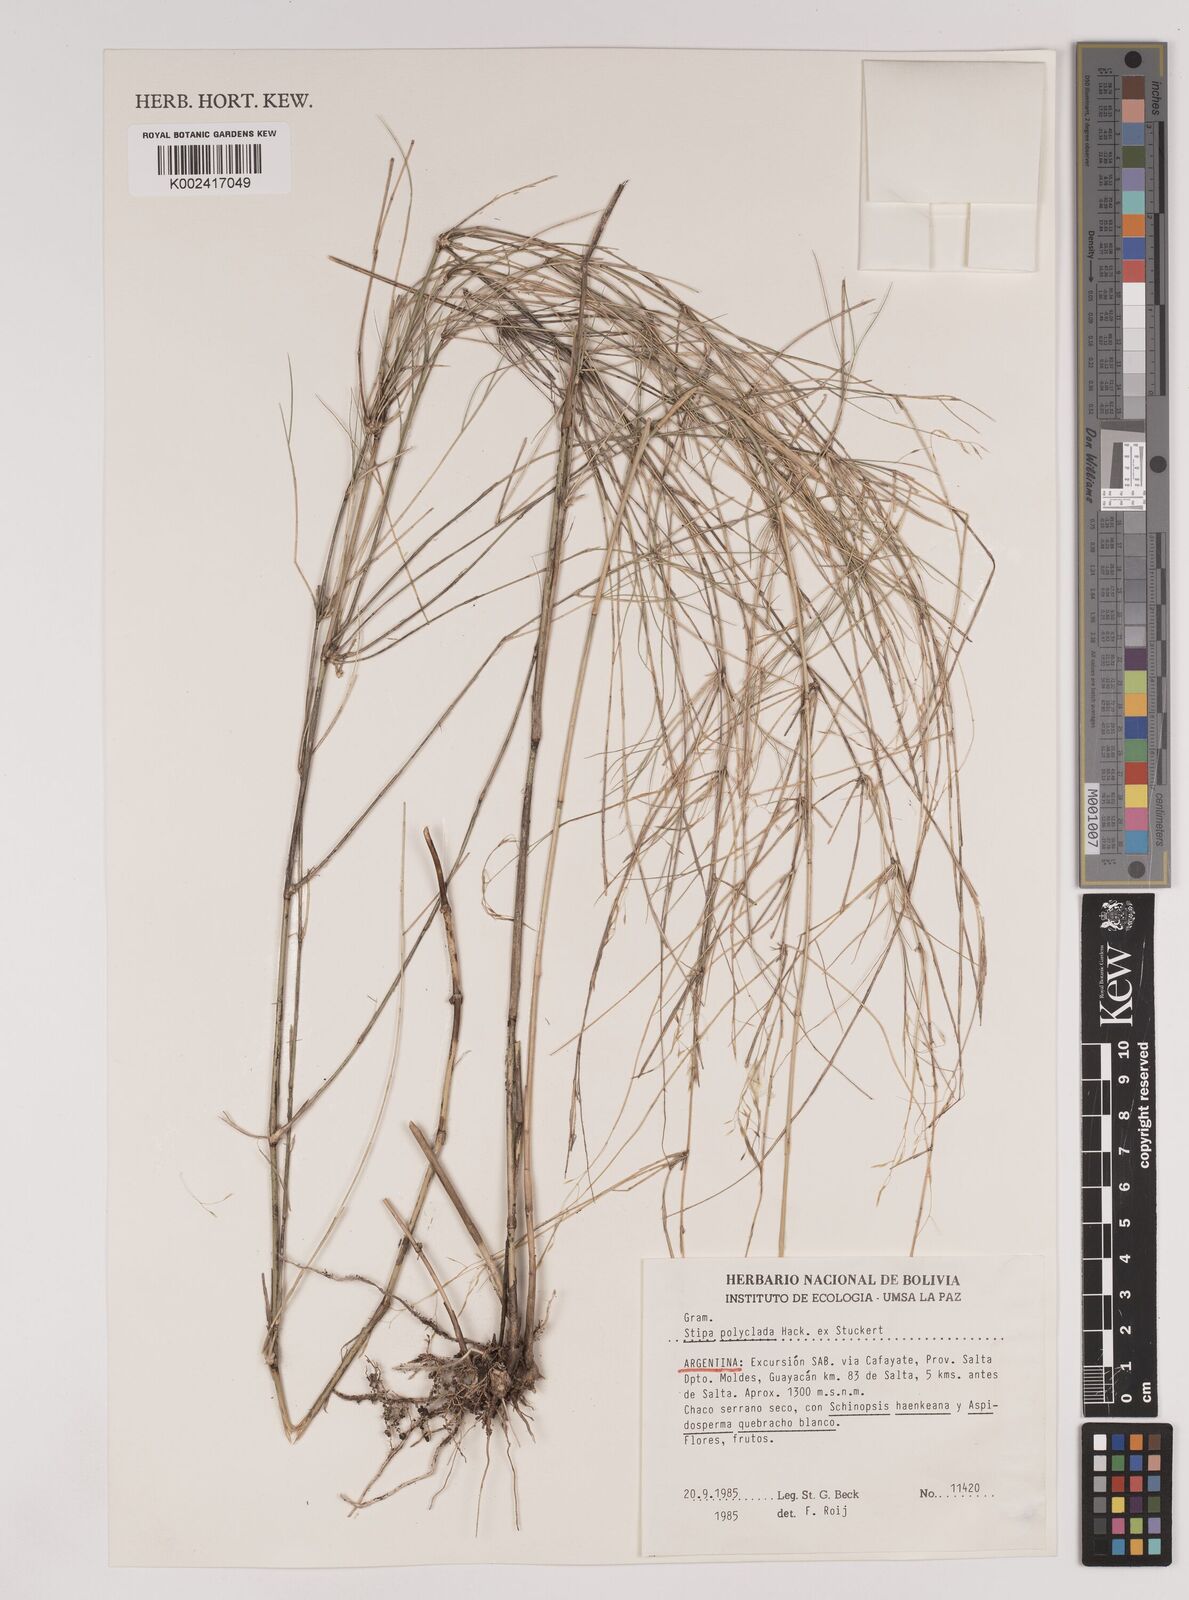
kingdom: Plantae
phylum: Tracheophyta
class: Liliopsida
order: Poales
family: Poaceae
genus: Stipa
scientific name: Stipa polyclada
